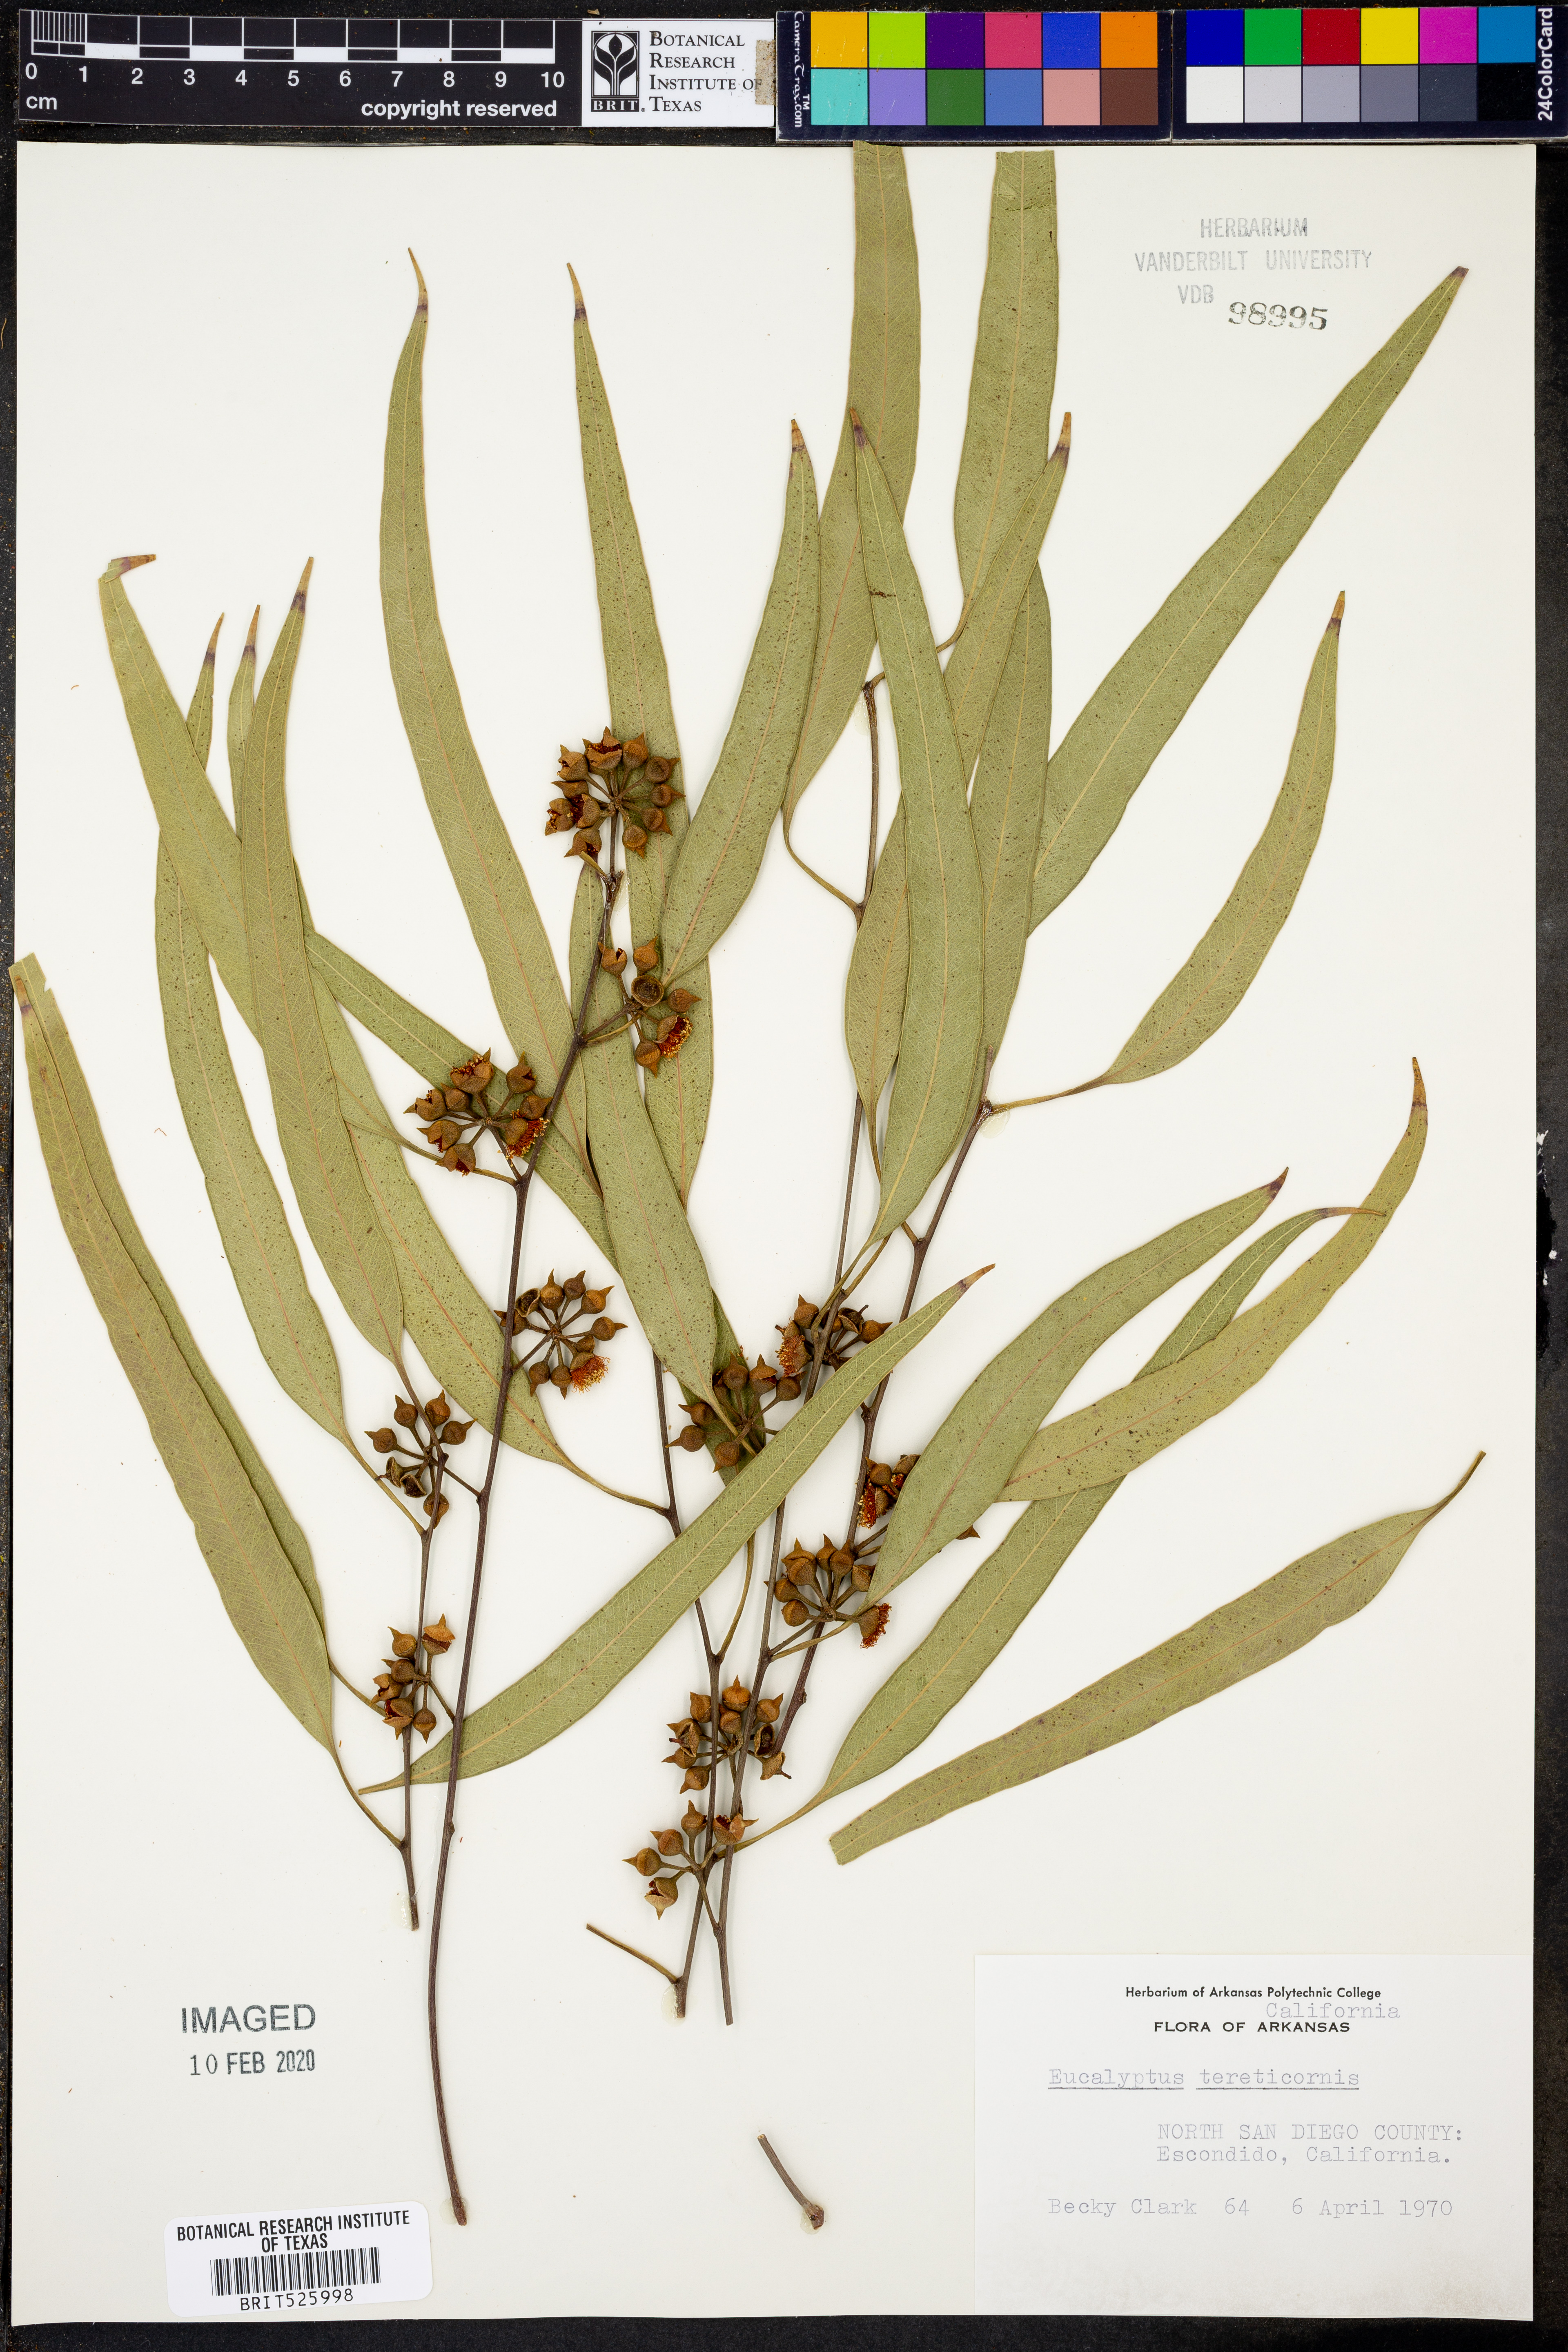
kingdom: Plantae
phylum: Tracheophyta
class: Magnoliopsida
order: Myrtales
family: Myrtaceae
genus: Eucalyptus
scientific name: Eucalyptus tereticornis
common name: Forest redgum
